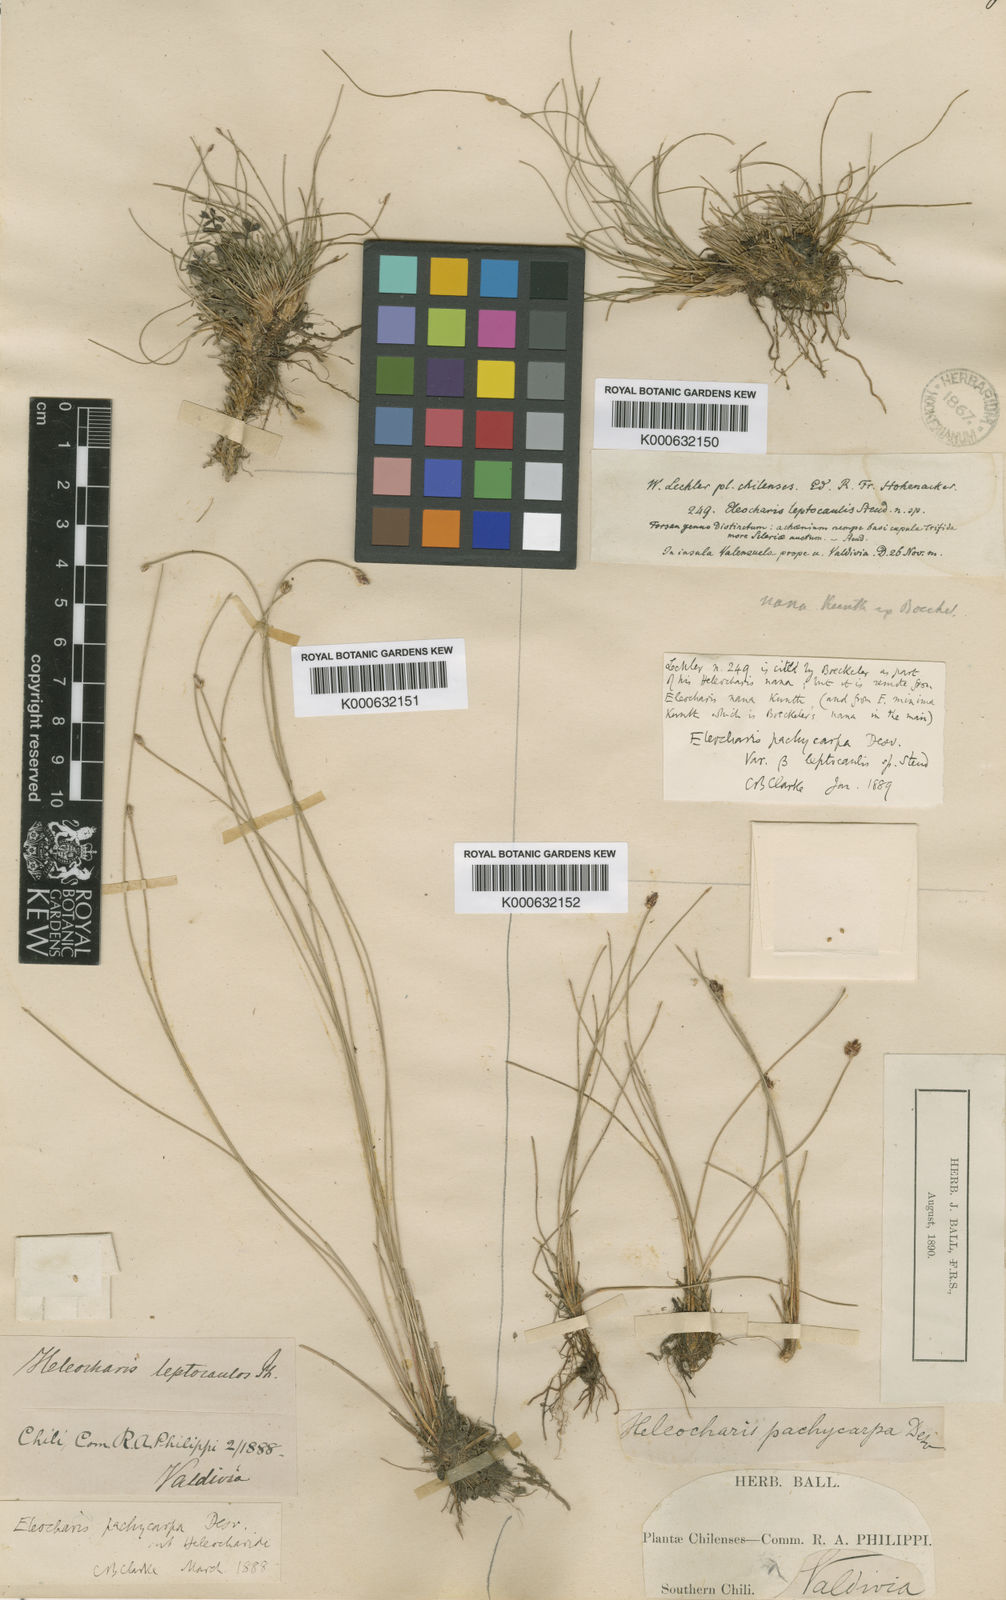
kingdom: Plantae
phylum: Tracheophyta
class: Liliopsida
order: Poales
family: Cyperaceae
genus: Eleocharis
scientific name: Eleocharis
